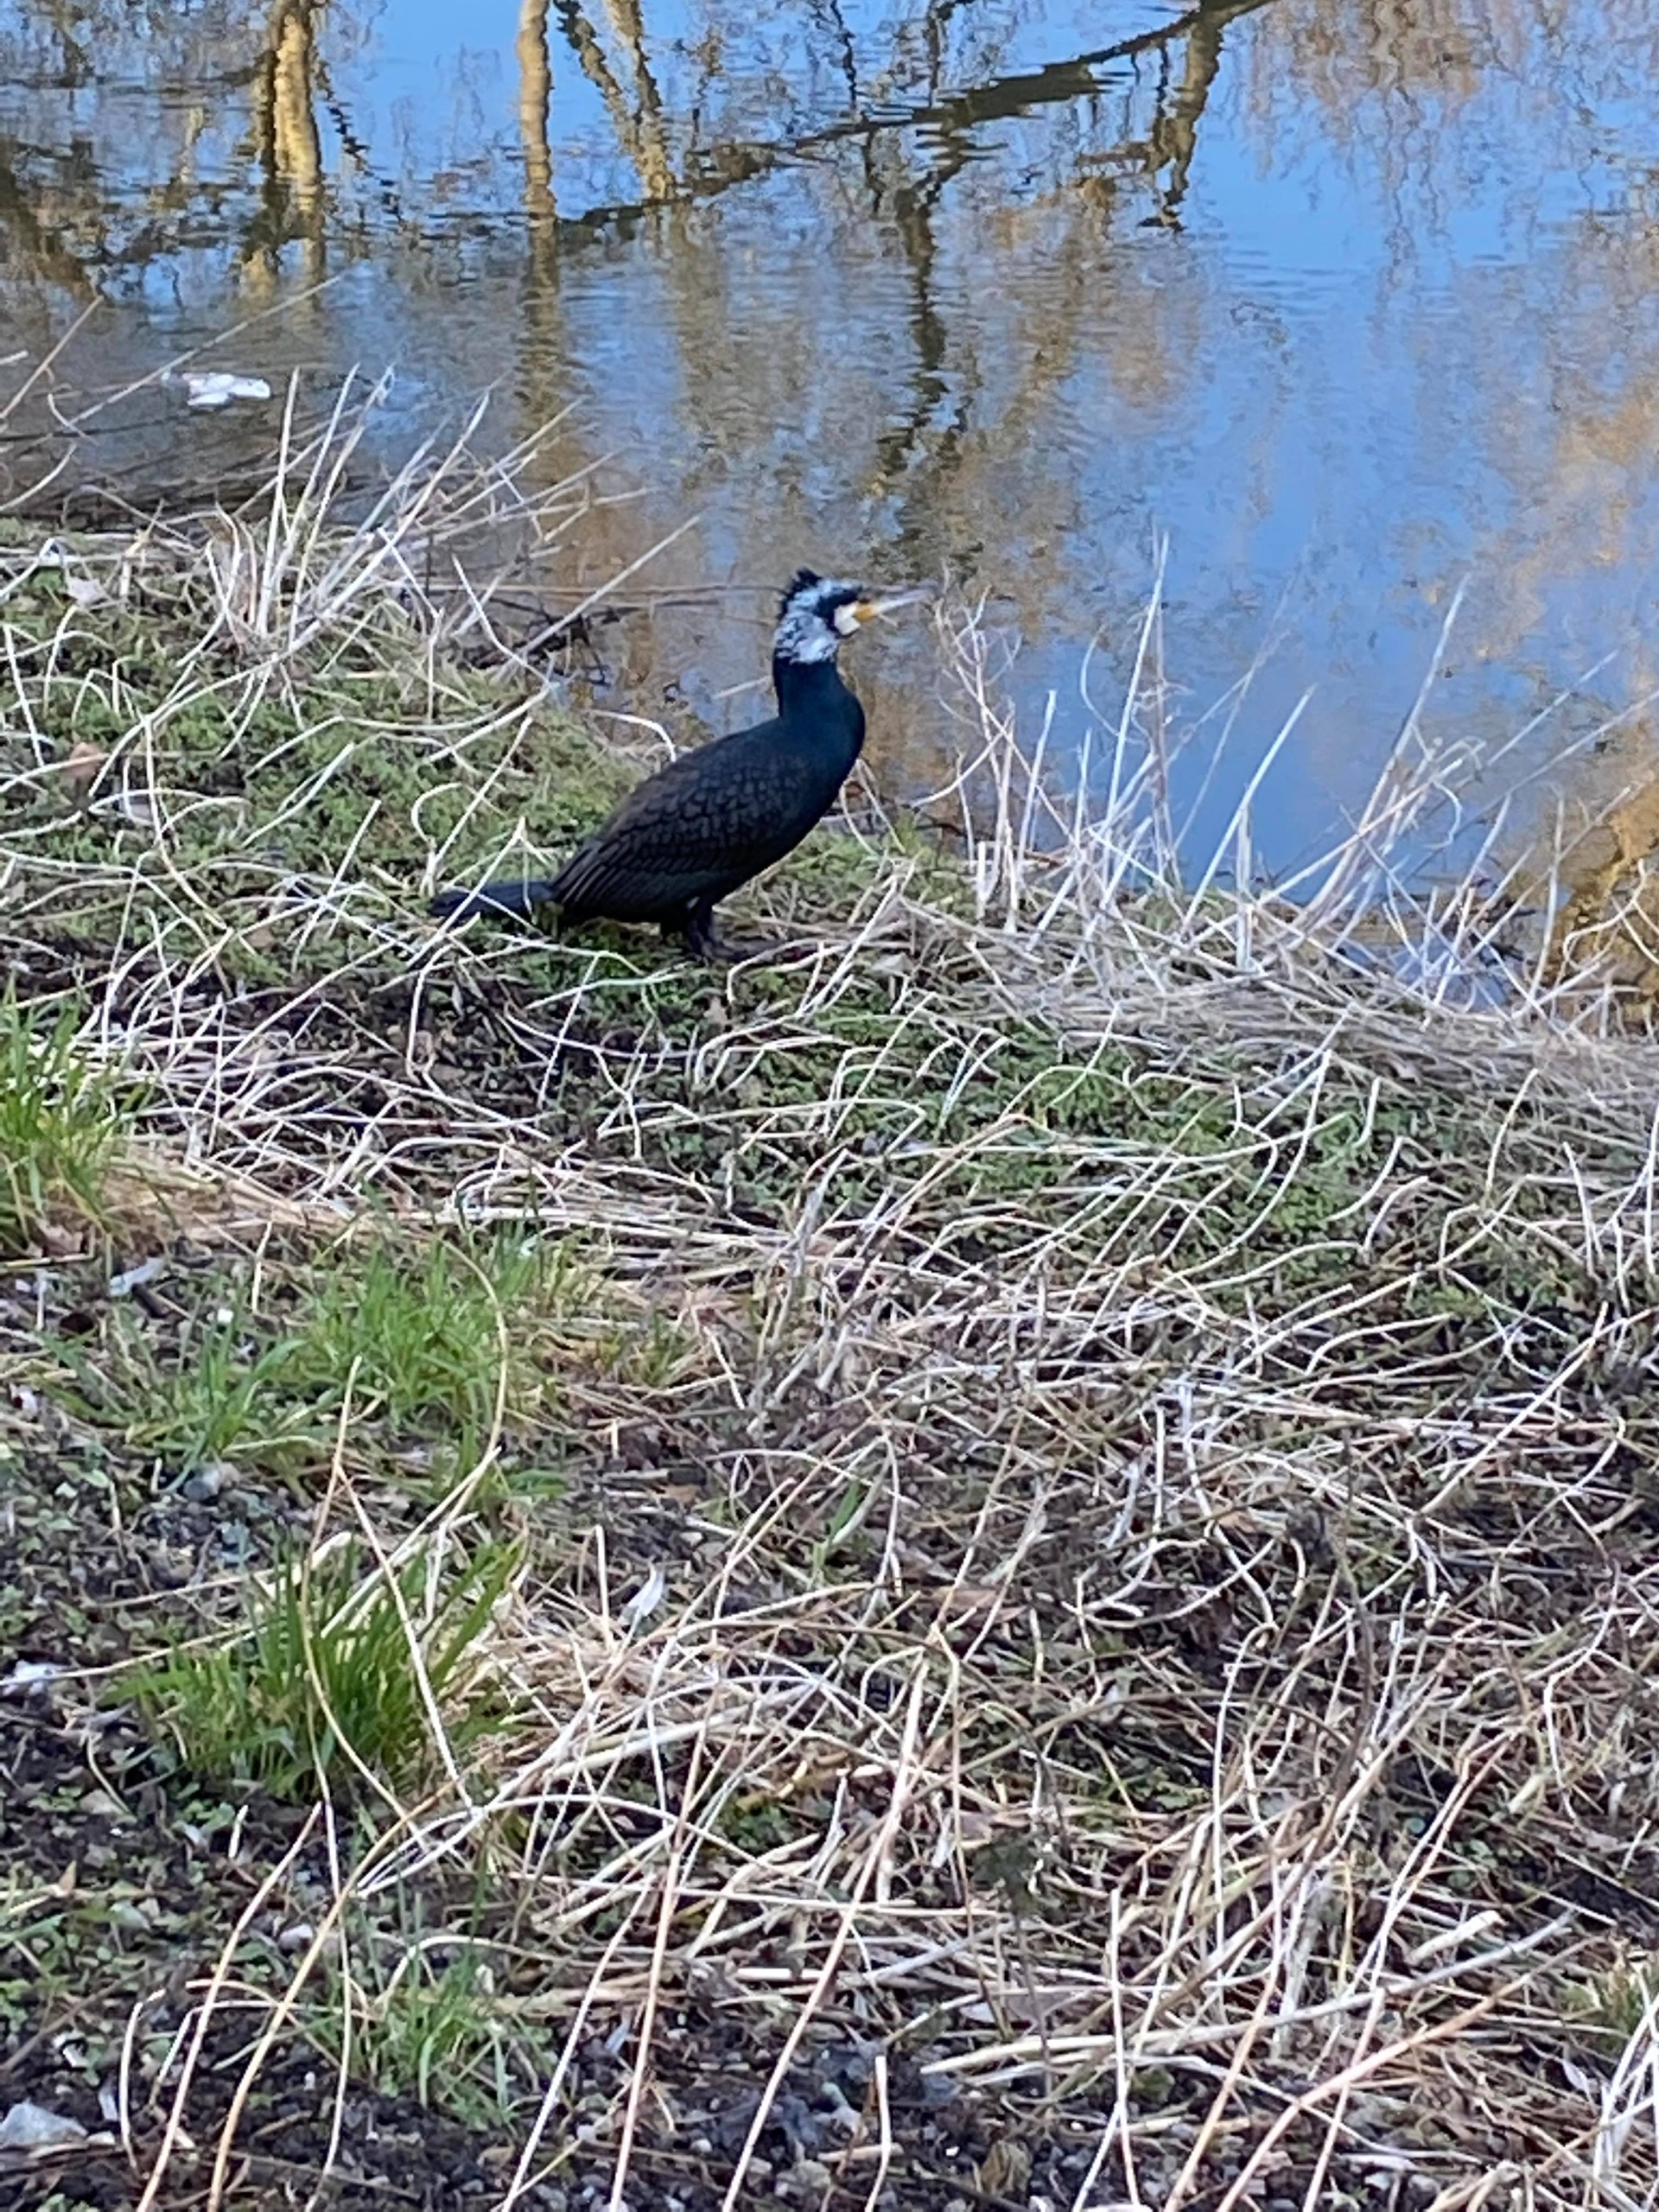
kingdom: Animalia
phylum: Chordata
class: Aves
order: Suliformes
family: Phalacrocoracidae
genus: Phalacrocorax
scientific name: Phalacrocorax carbo
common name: Skarv
